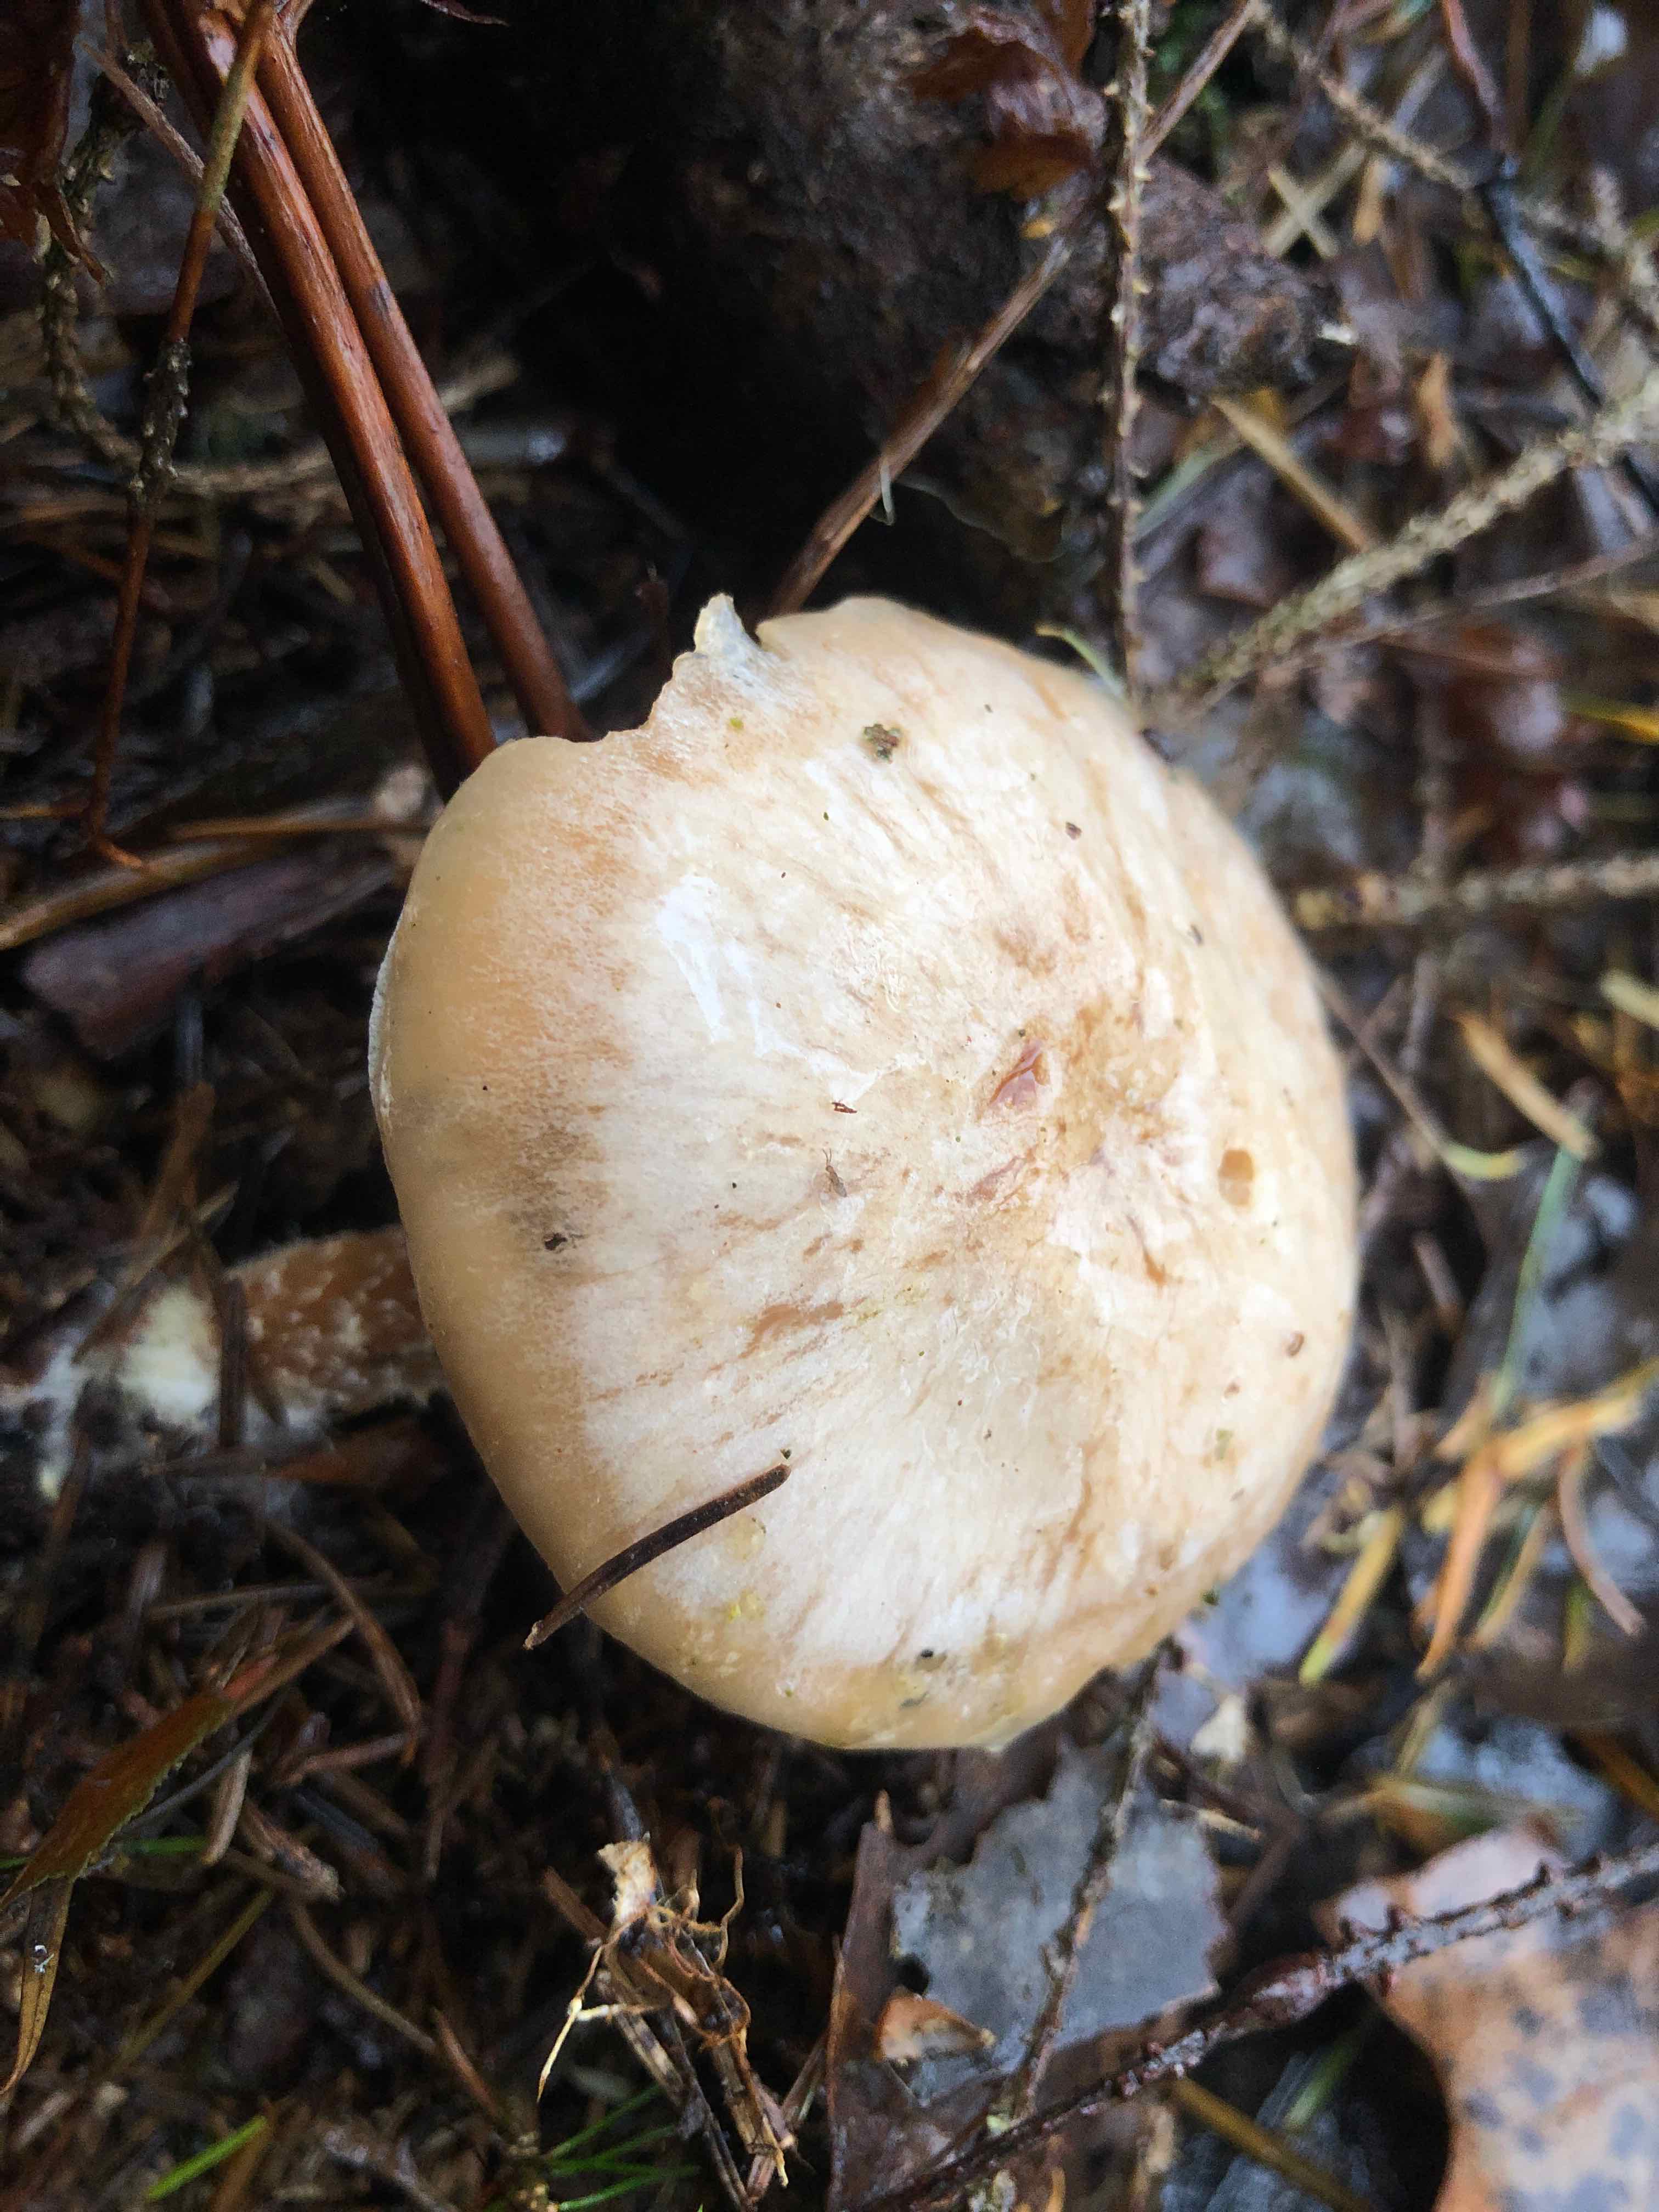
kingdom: Fungi
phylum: Basidiomycota
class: Agaricomycetes
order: Agaricales
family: Strophariaceae
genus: Pholiota
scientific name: Pholiota lenta
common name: løv-skælhat
